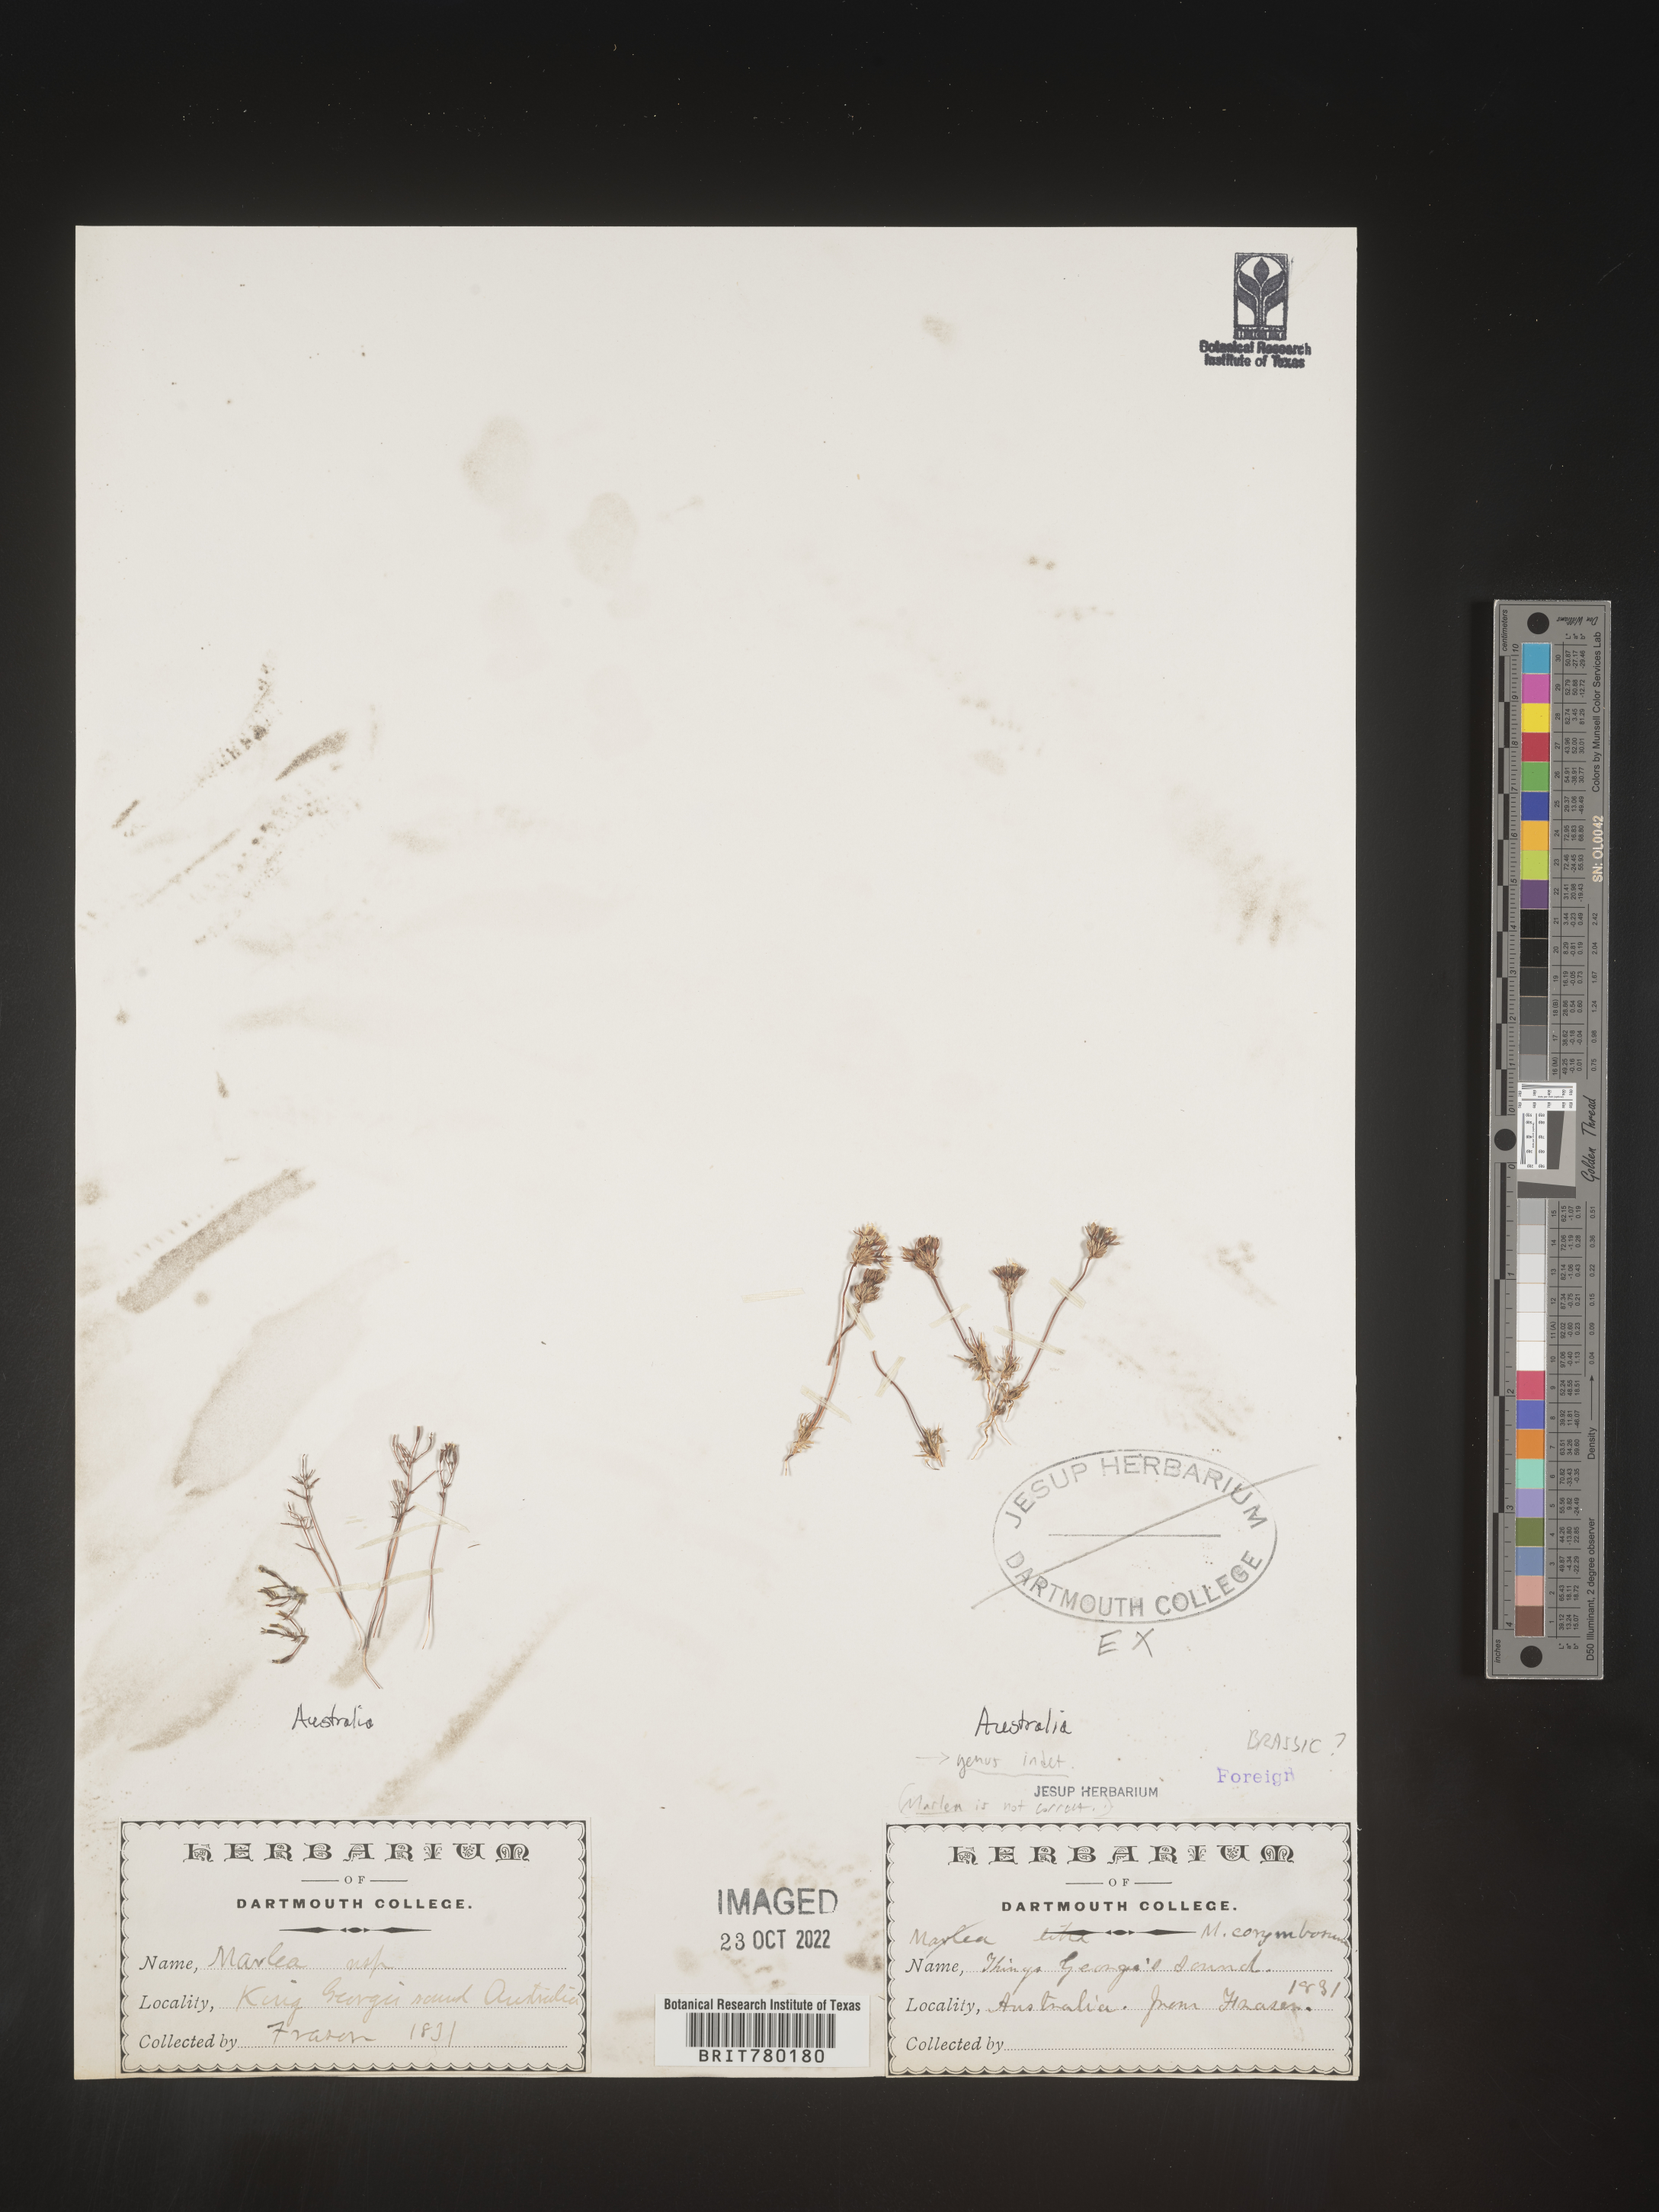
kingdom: Plantae
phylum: Tracheophyta
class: Magnoliopsida
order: Brassicales
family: Brassicaceae
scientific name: Brassicaceae
